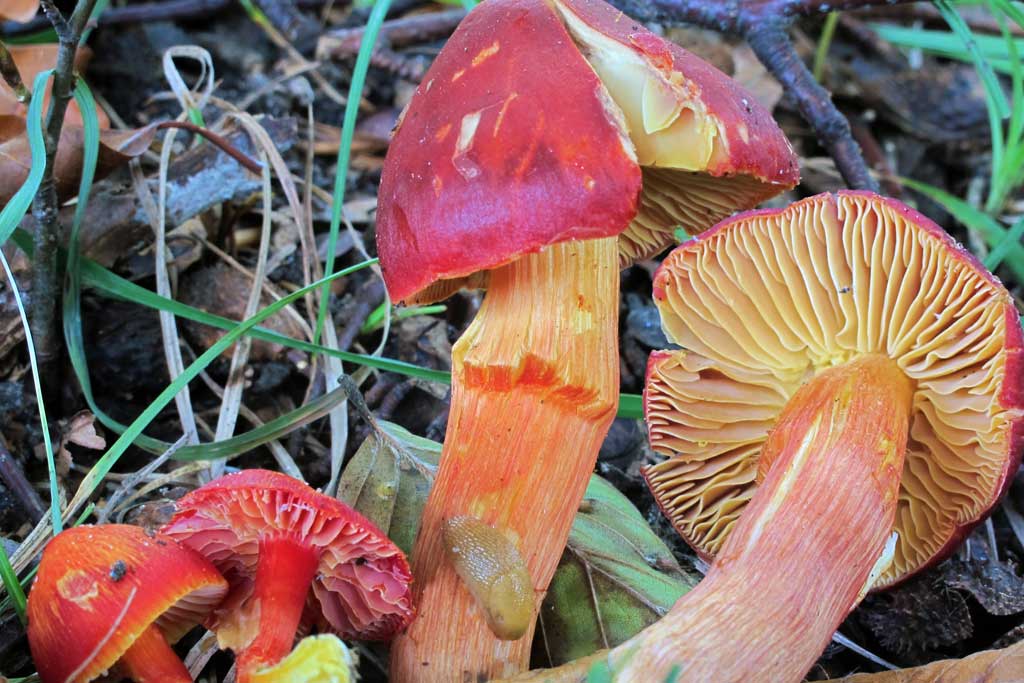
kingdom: Fungi
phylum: Basidiomycota
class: Agaricomycetes
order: Agaricales
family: Hygrophoraceae
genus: Hygrocybe
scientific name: Hygrocybe punicea
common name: skarlagen-vokshat
